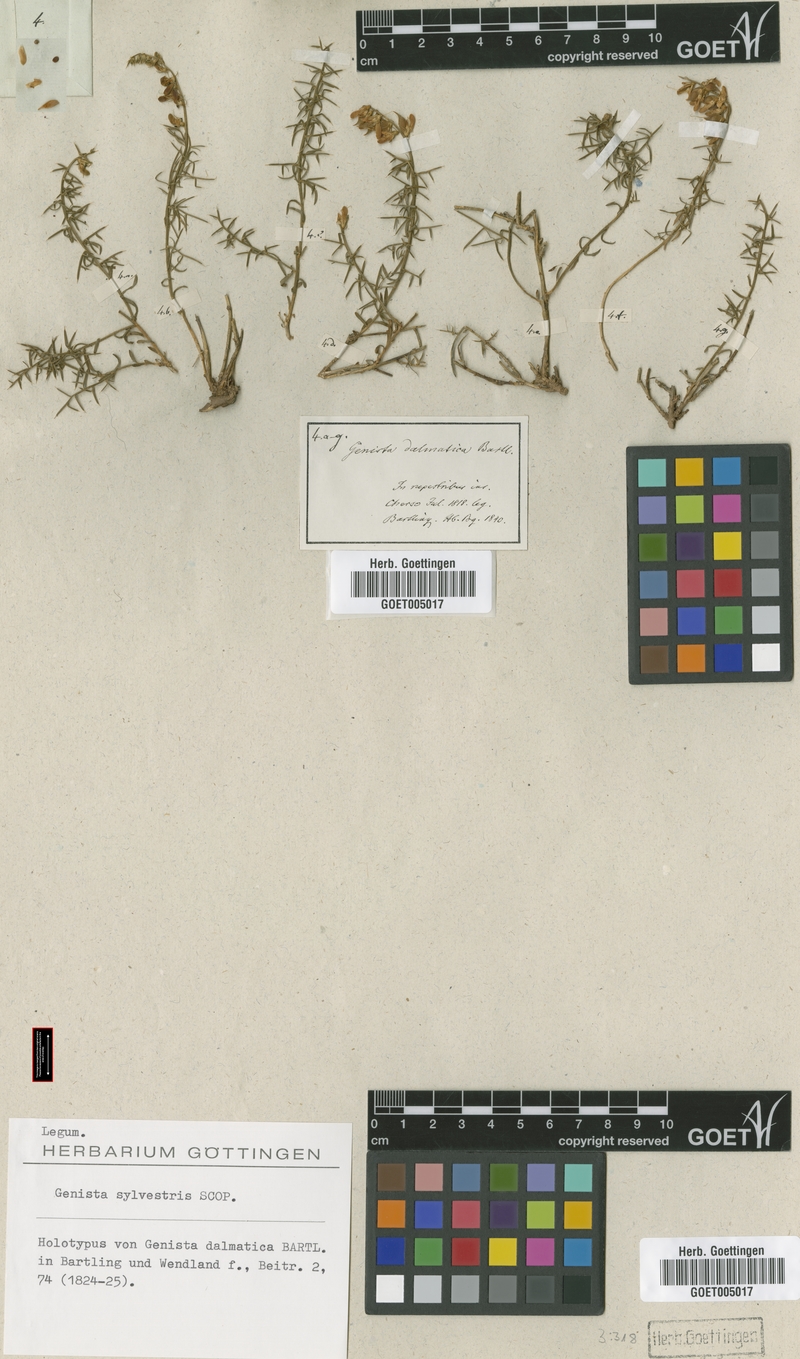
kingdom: Plantae
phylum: Tracheophyta
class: Magnoliopsida
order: Fabales
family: Fabaceae
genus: Genista
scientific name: Genista sylvestris
